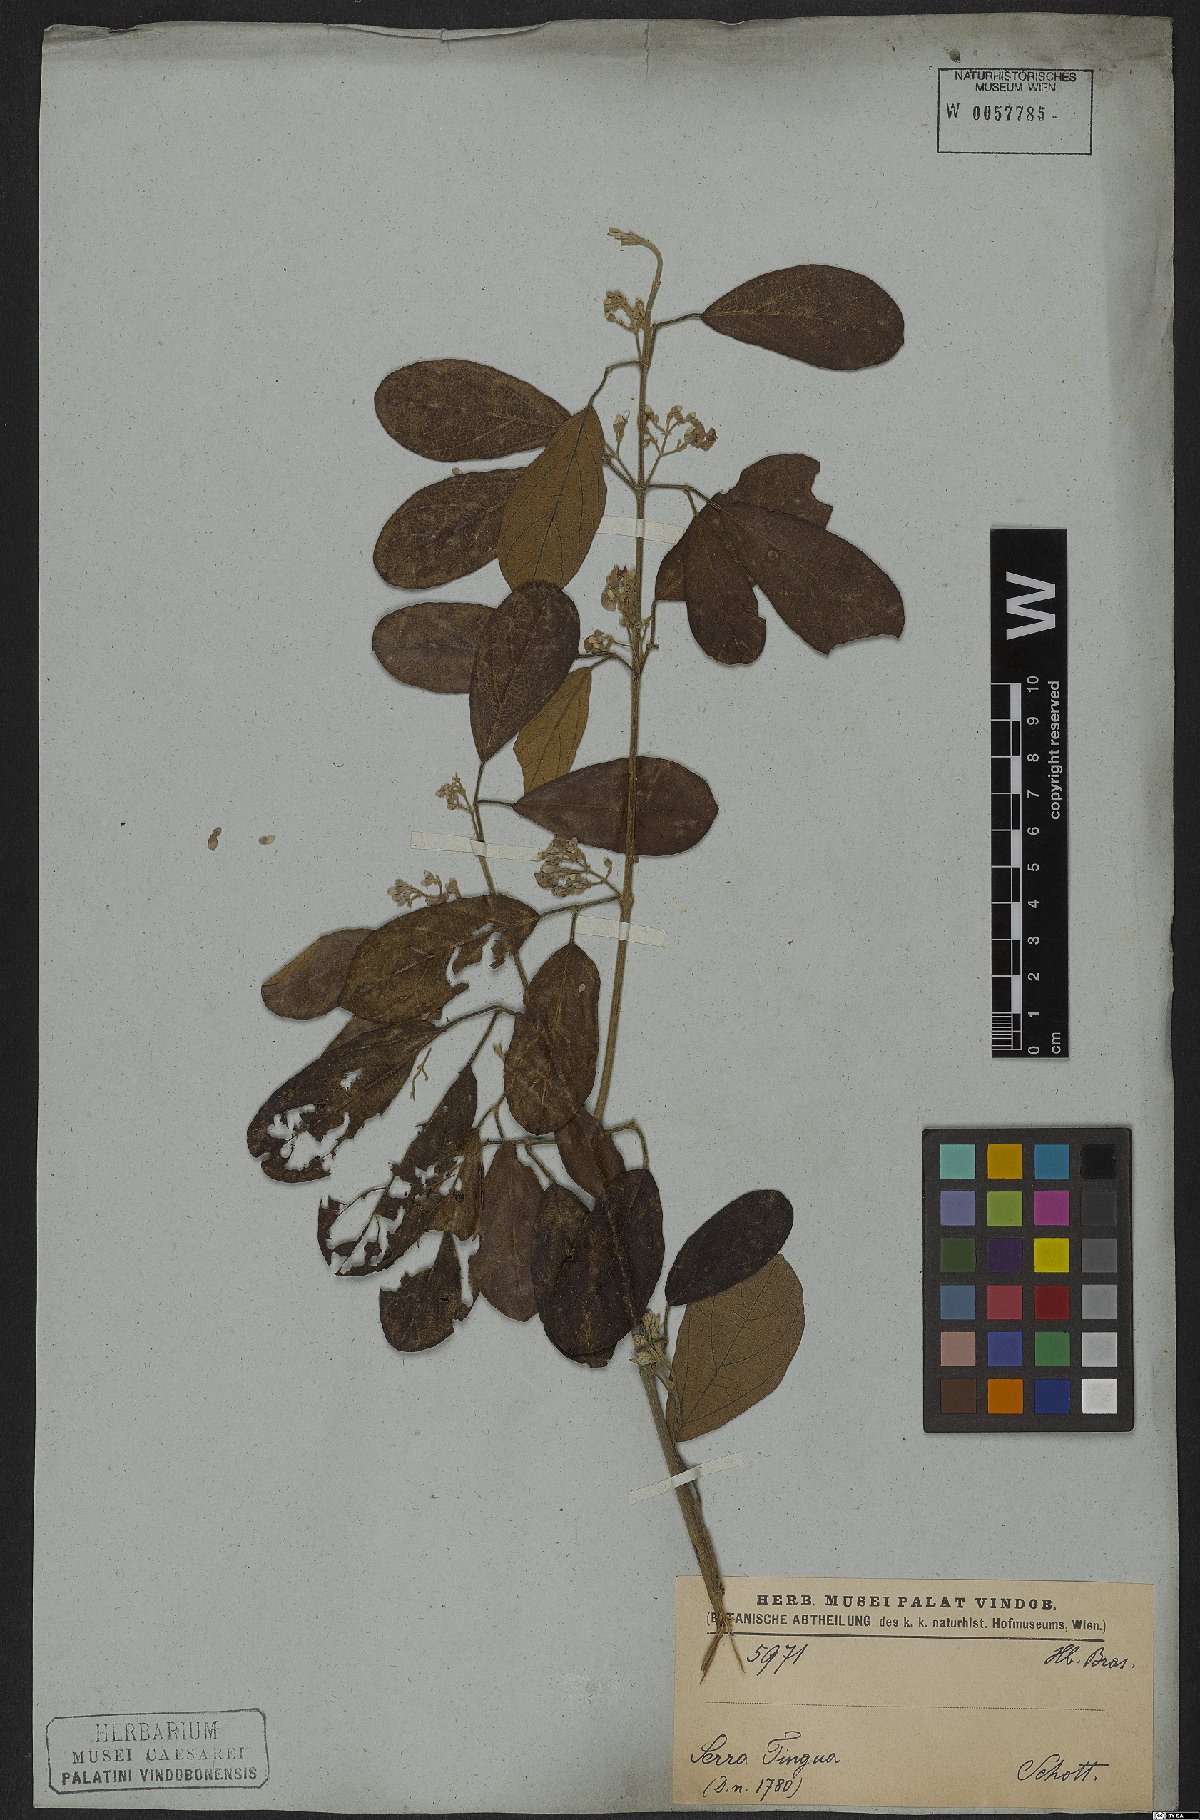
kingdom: Plantae
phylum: Tracheophyta
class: Magnoliopsida
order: Lamiales
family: Bignoniaceae
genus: Tynanthus
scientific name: Tynanthus elegans
